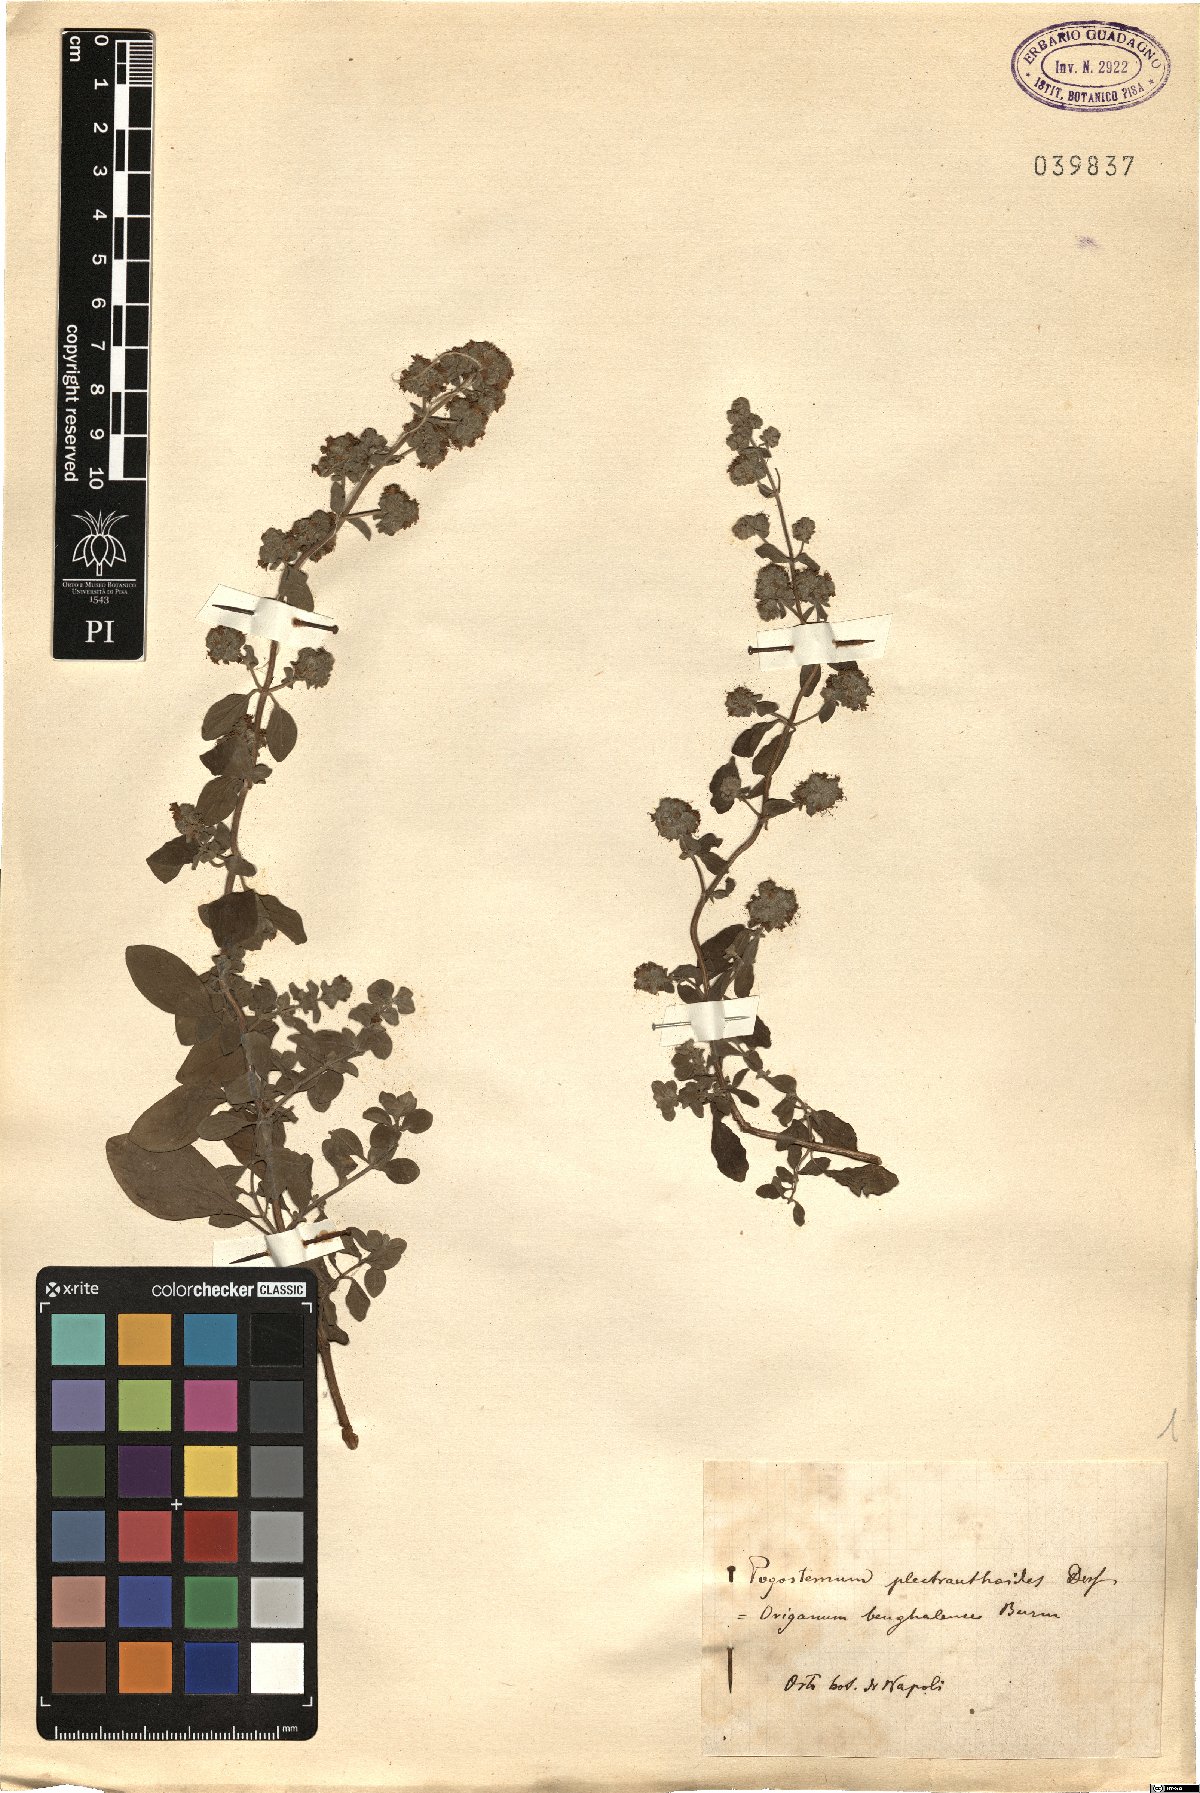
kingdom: Plantae
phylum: Tracheophyta
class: Magnoliopsida
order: Lamiales
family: Lamiaceae
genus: Pogostemon
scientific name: Pogostemon benghalensis
